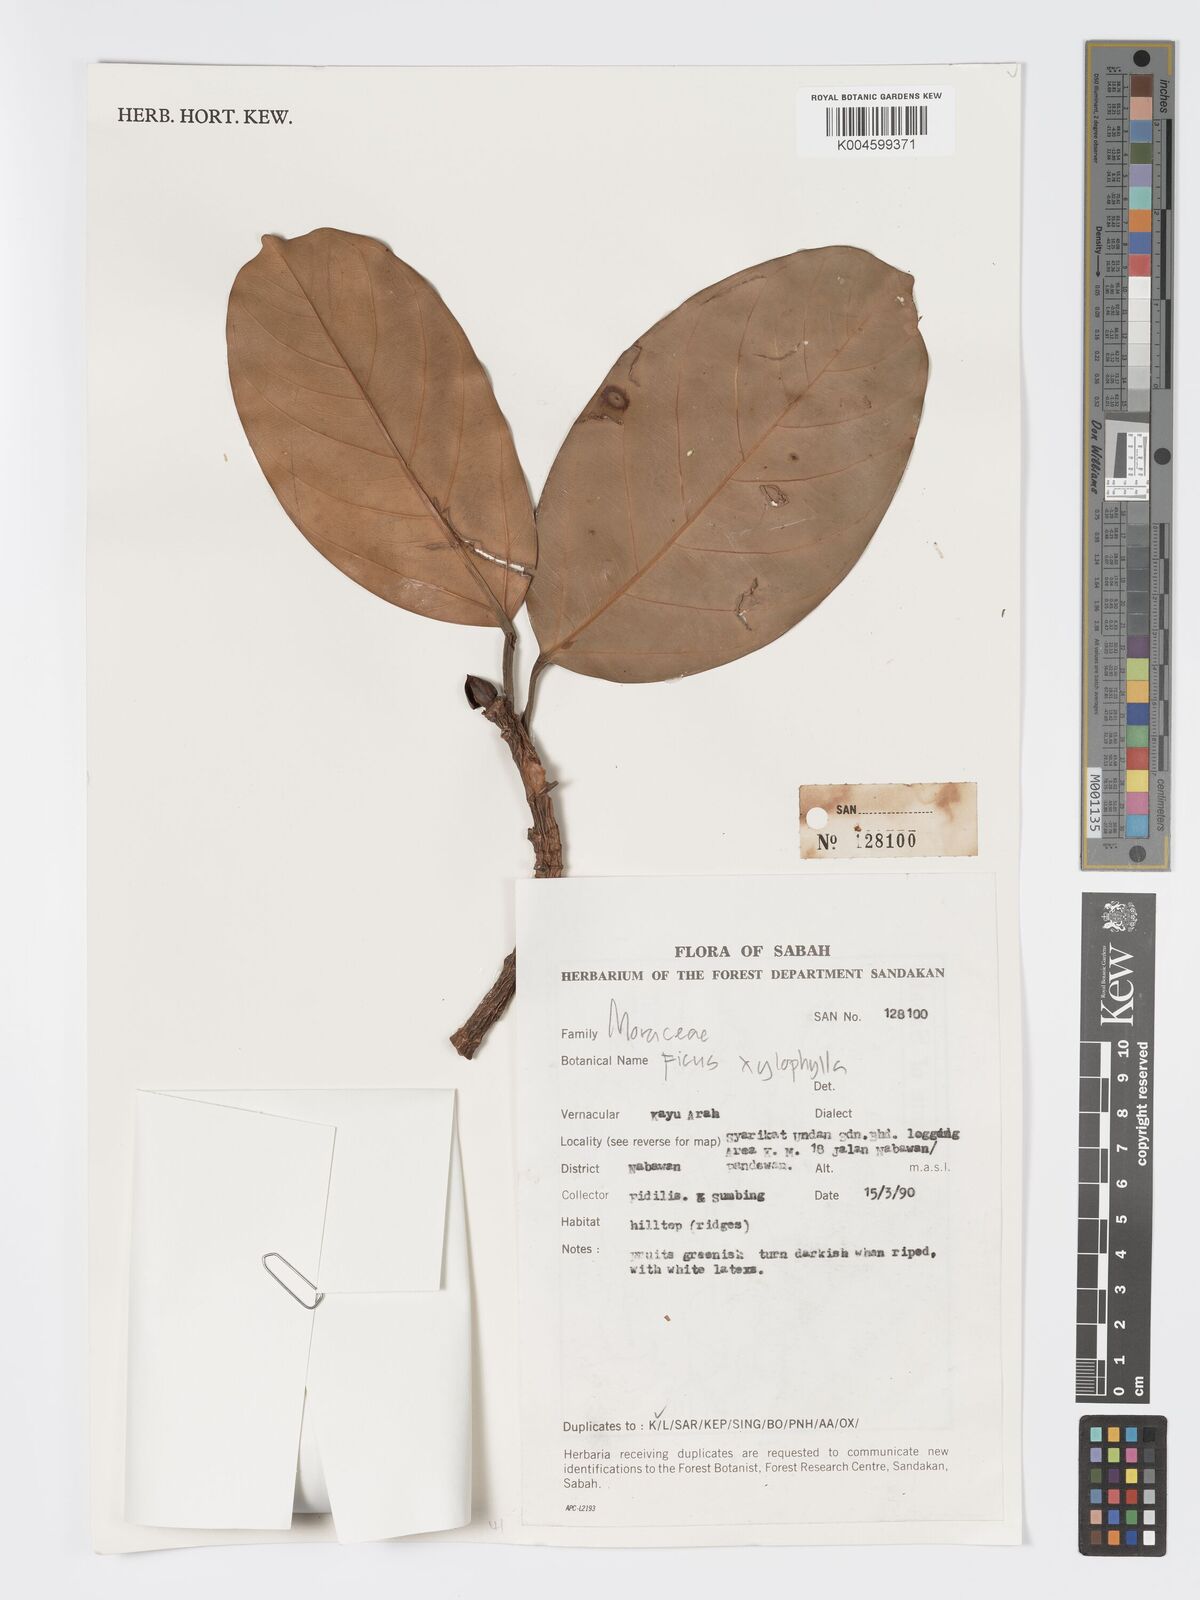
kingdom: Plantae
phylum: Tracheophyta
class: Magnoliopsida
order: Rosales
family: Moraceae
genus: Ficus
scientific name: Ficus xylophylla
